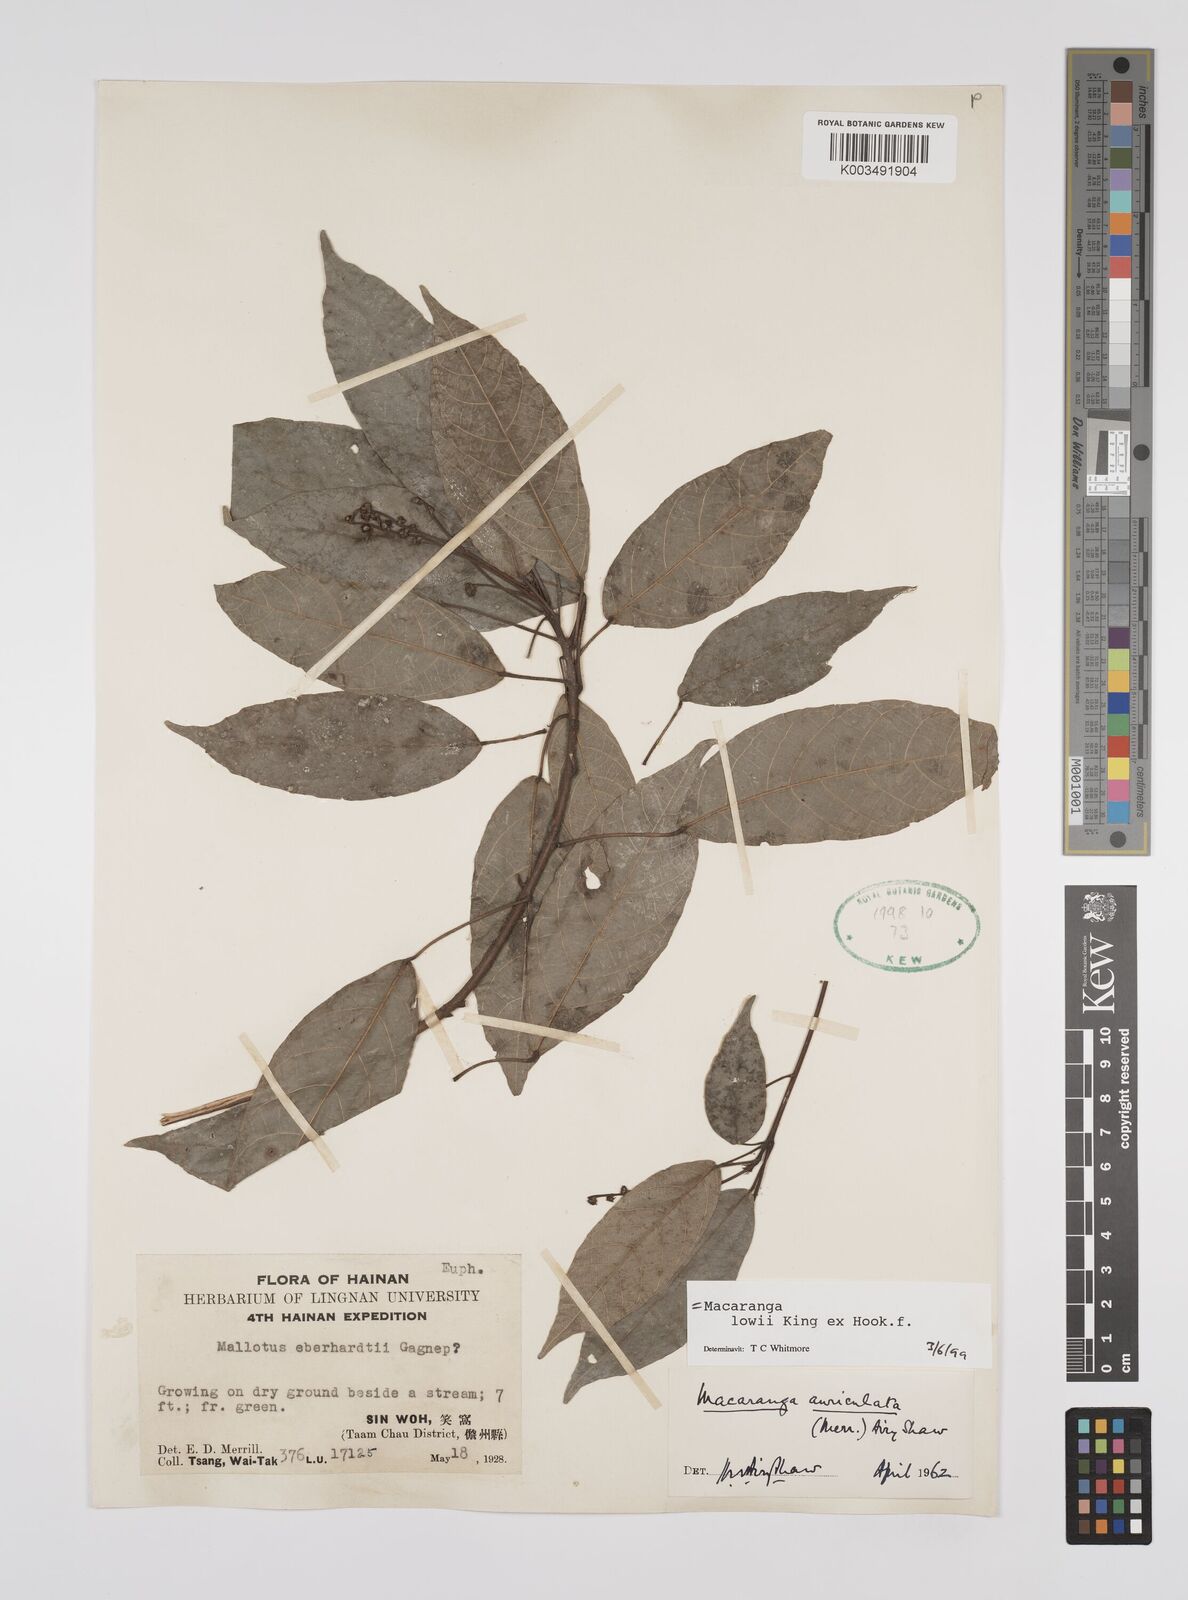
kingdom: Plantae
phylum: Tracheophyta
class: Magnoliopsida
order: Malpighiales
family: Euphorbiaceae
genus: Macaranga
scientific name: Macaranga lowii
